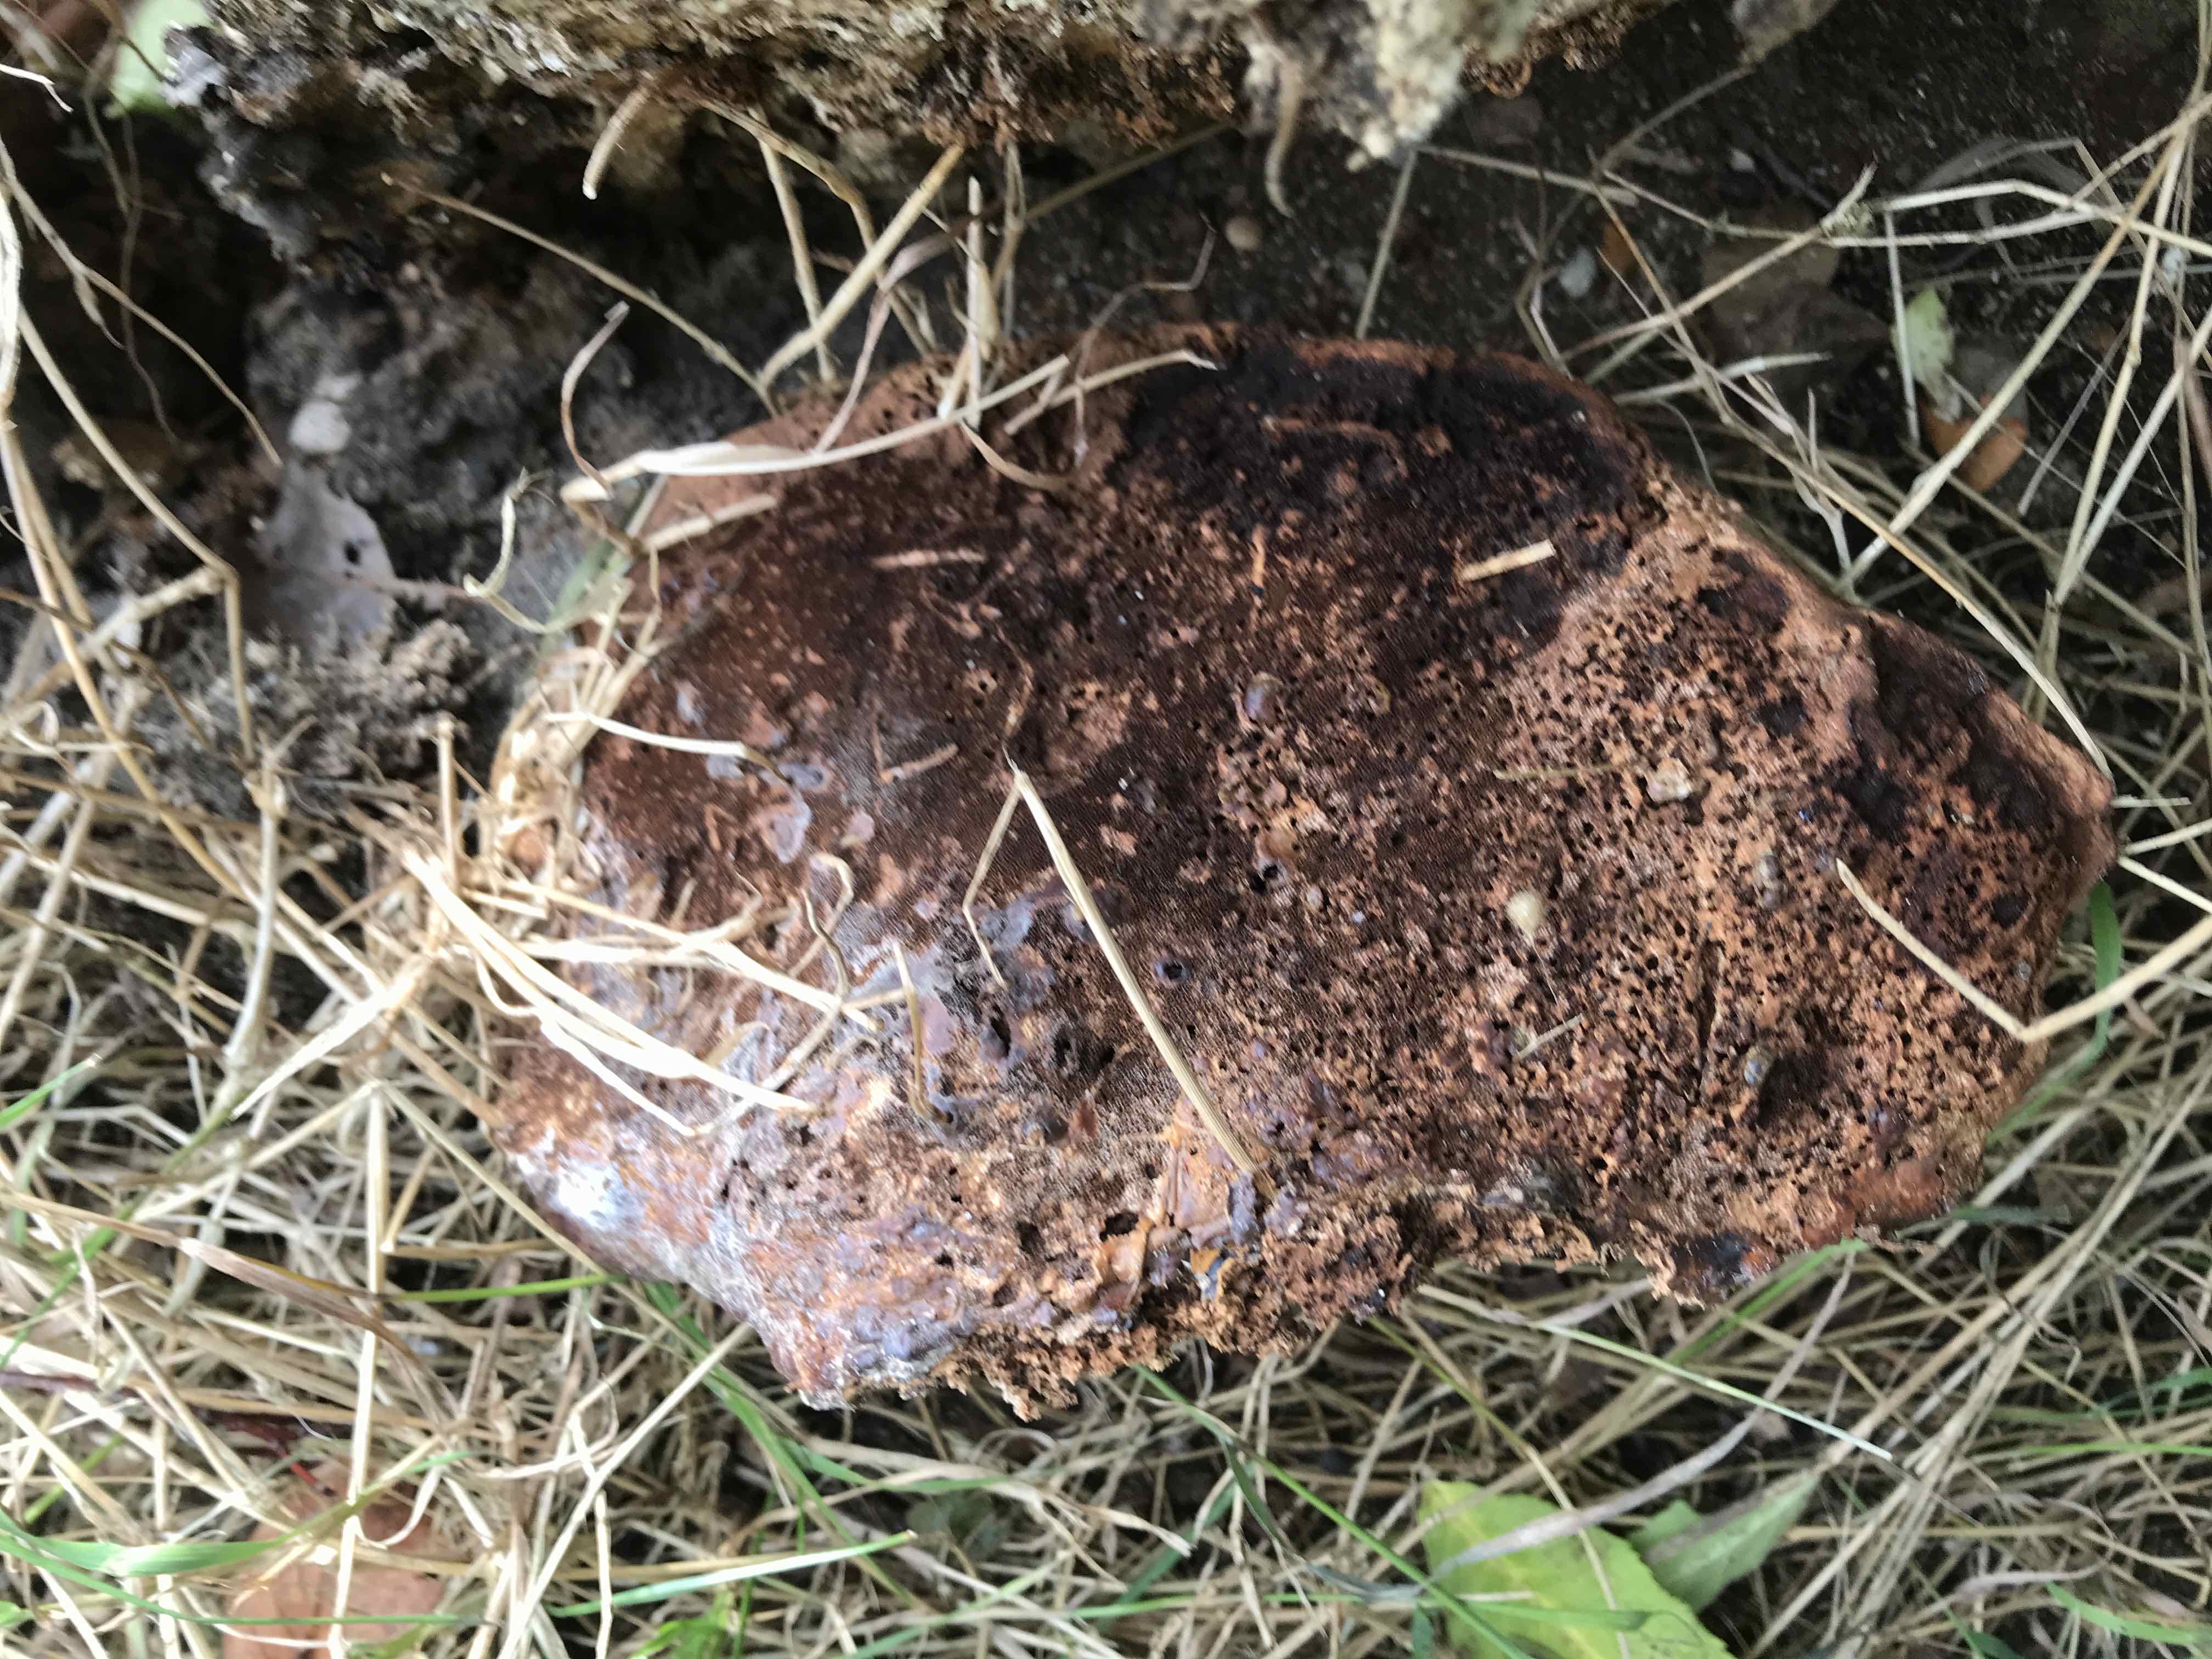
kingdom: Fungi
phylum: Basidiomycota
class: Agaricomycetes
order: Polyporales
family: Polyporaceae
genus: Ganoderma
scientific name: Ganoderma resinaceum
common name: gyldenbrun lakporesvamp
